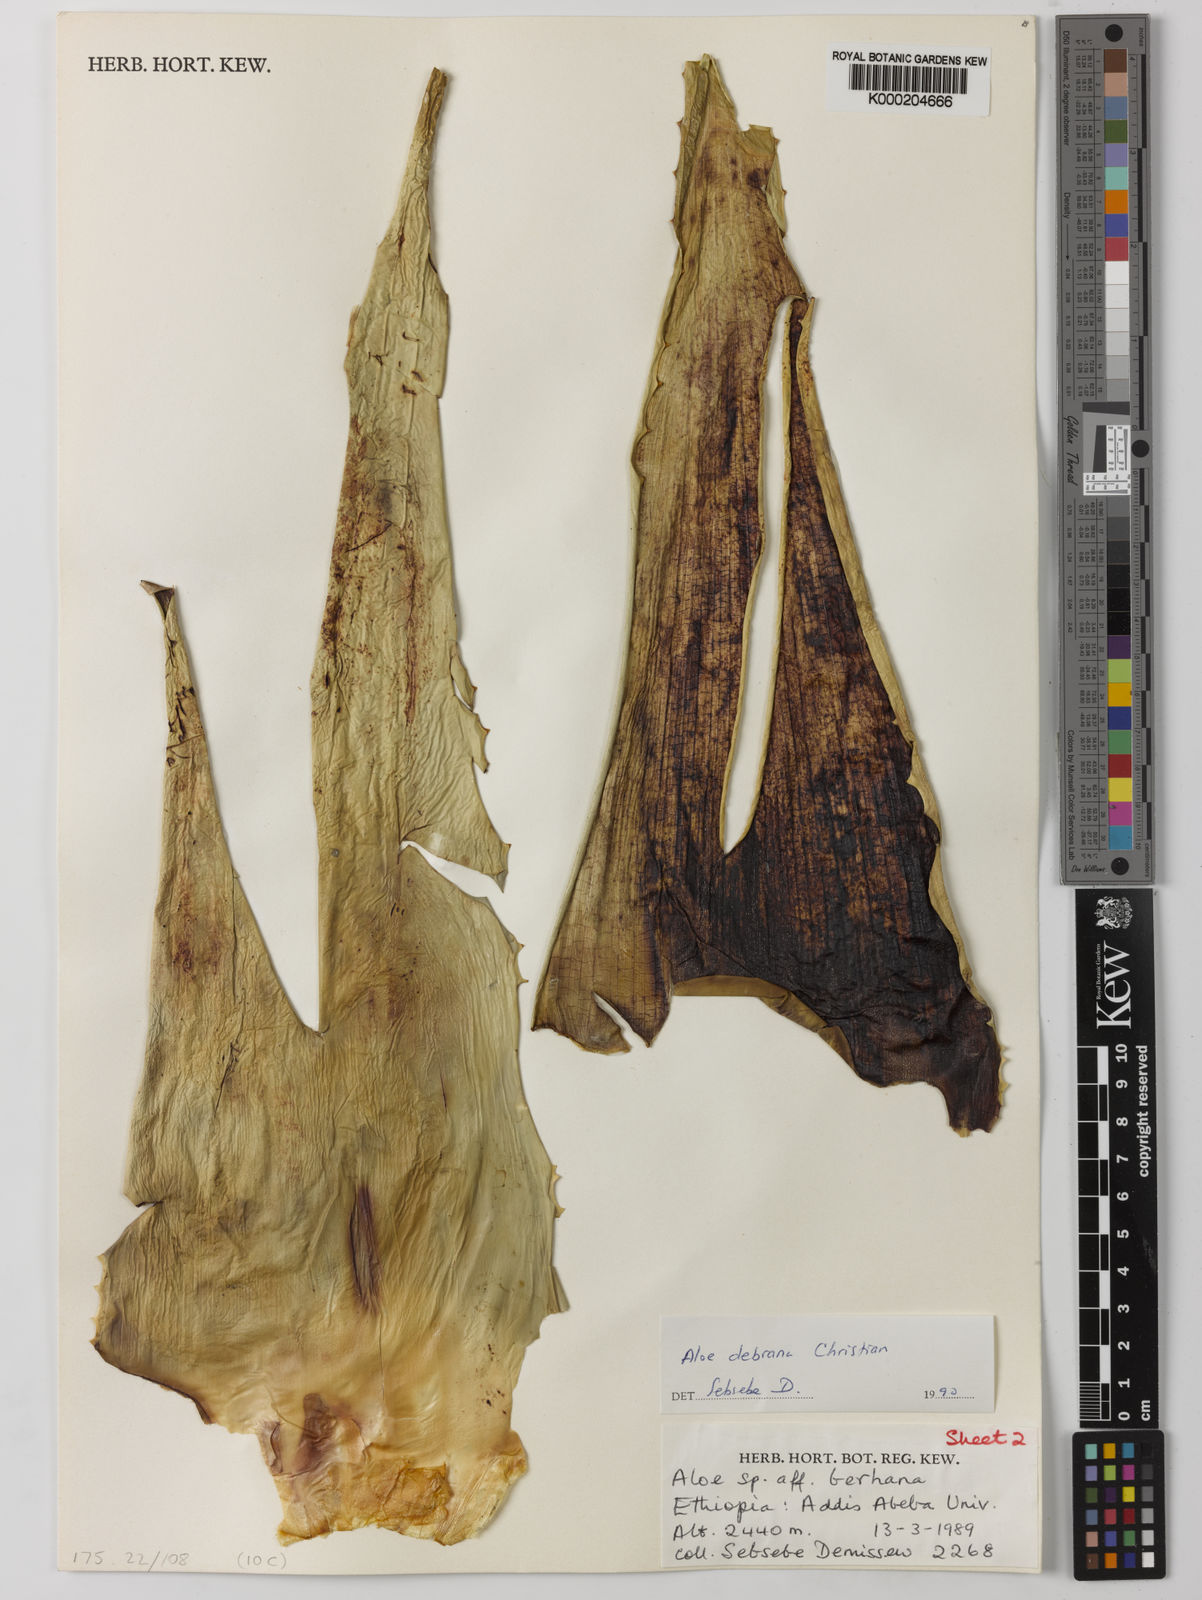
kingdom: Plantae
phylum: Tracheophyta
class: Liliopsida
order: Asparagales
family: Asphodelaceae
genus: Aloe
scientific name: Aloe debrana
